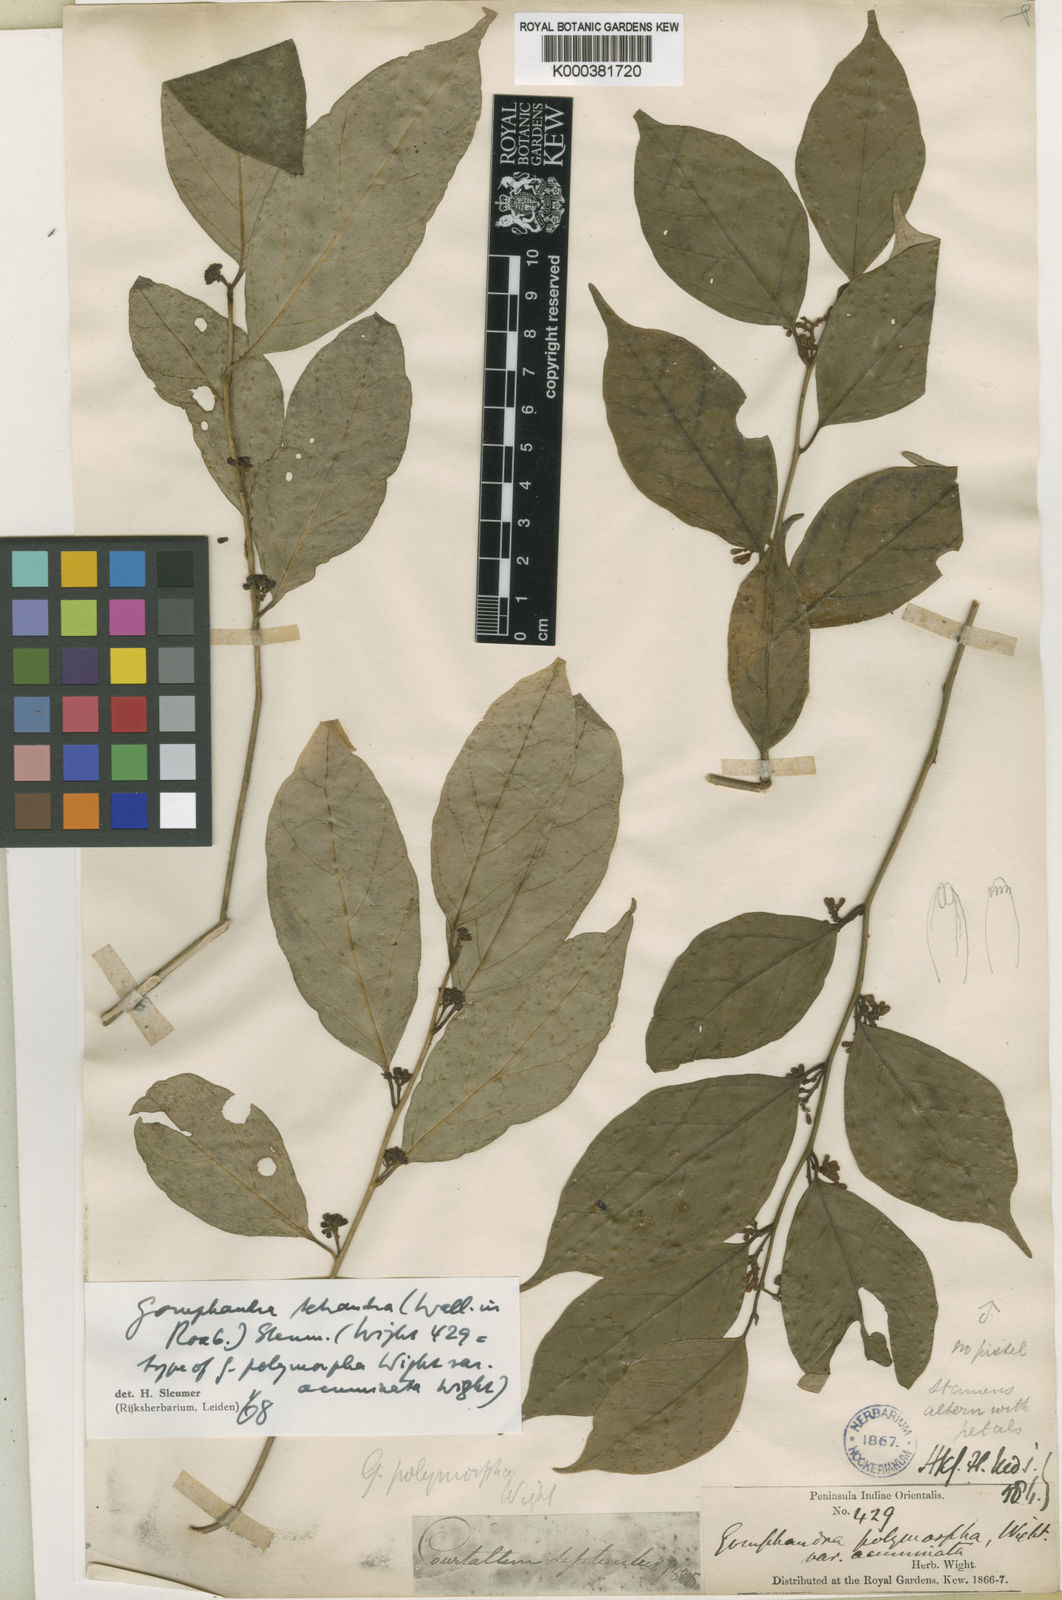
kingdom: Plantae
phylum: Tracheophyta
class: Magnoliopsida
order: Cardiopteridales
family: Stemonuraceae
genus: Gomphandra
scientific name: Gomphandra tetrandra
